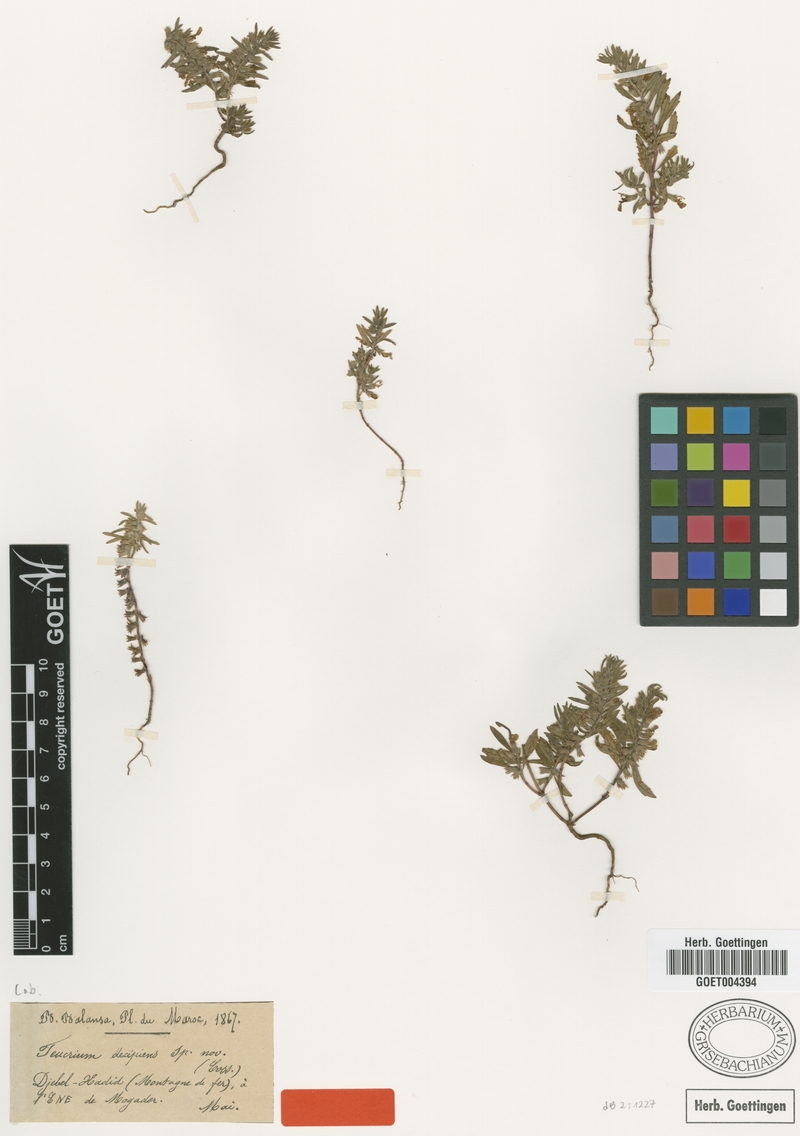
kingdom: Plantae
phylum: Tracheophyta
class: Magnoliopsida
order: Lamiales
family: Lamiaceae
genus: Teucrium
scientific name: Teucrium decipiens
